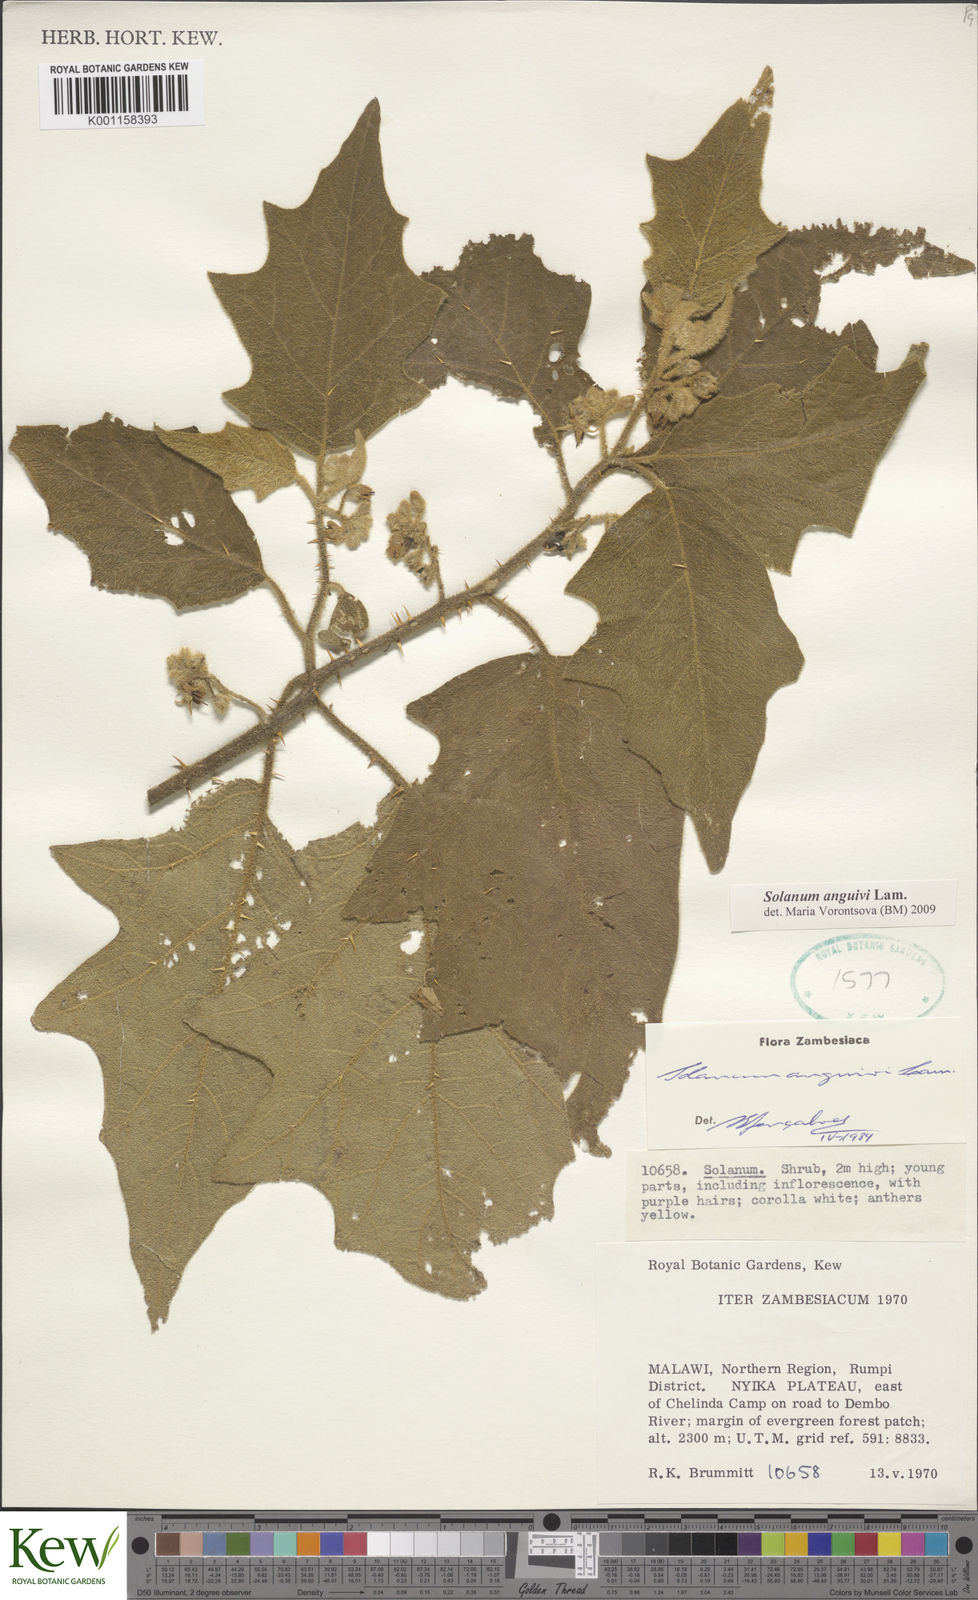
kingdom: Plantae
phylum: Tracheophyta
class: Magnoliopsida
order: Solanales
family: Solanaceae
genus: Solanum
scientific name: Solanum anguivi
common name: Forest bitterberry
